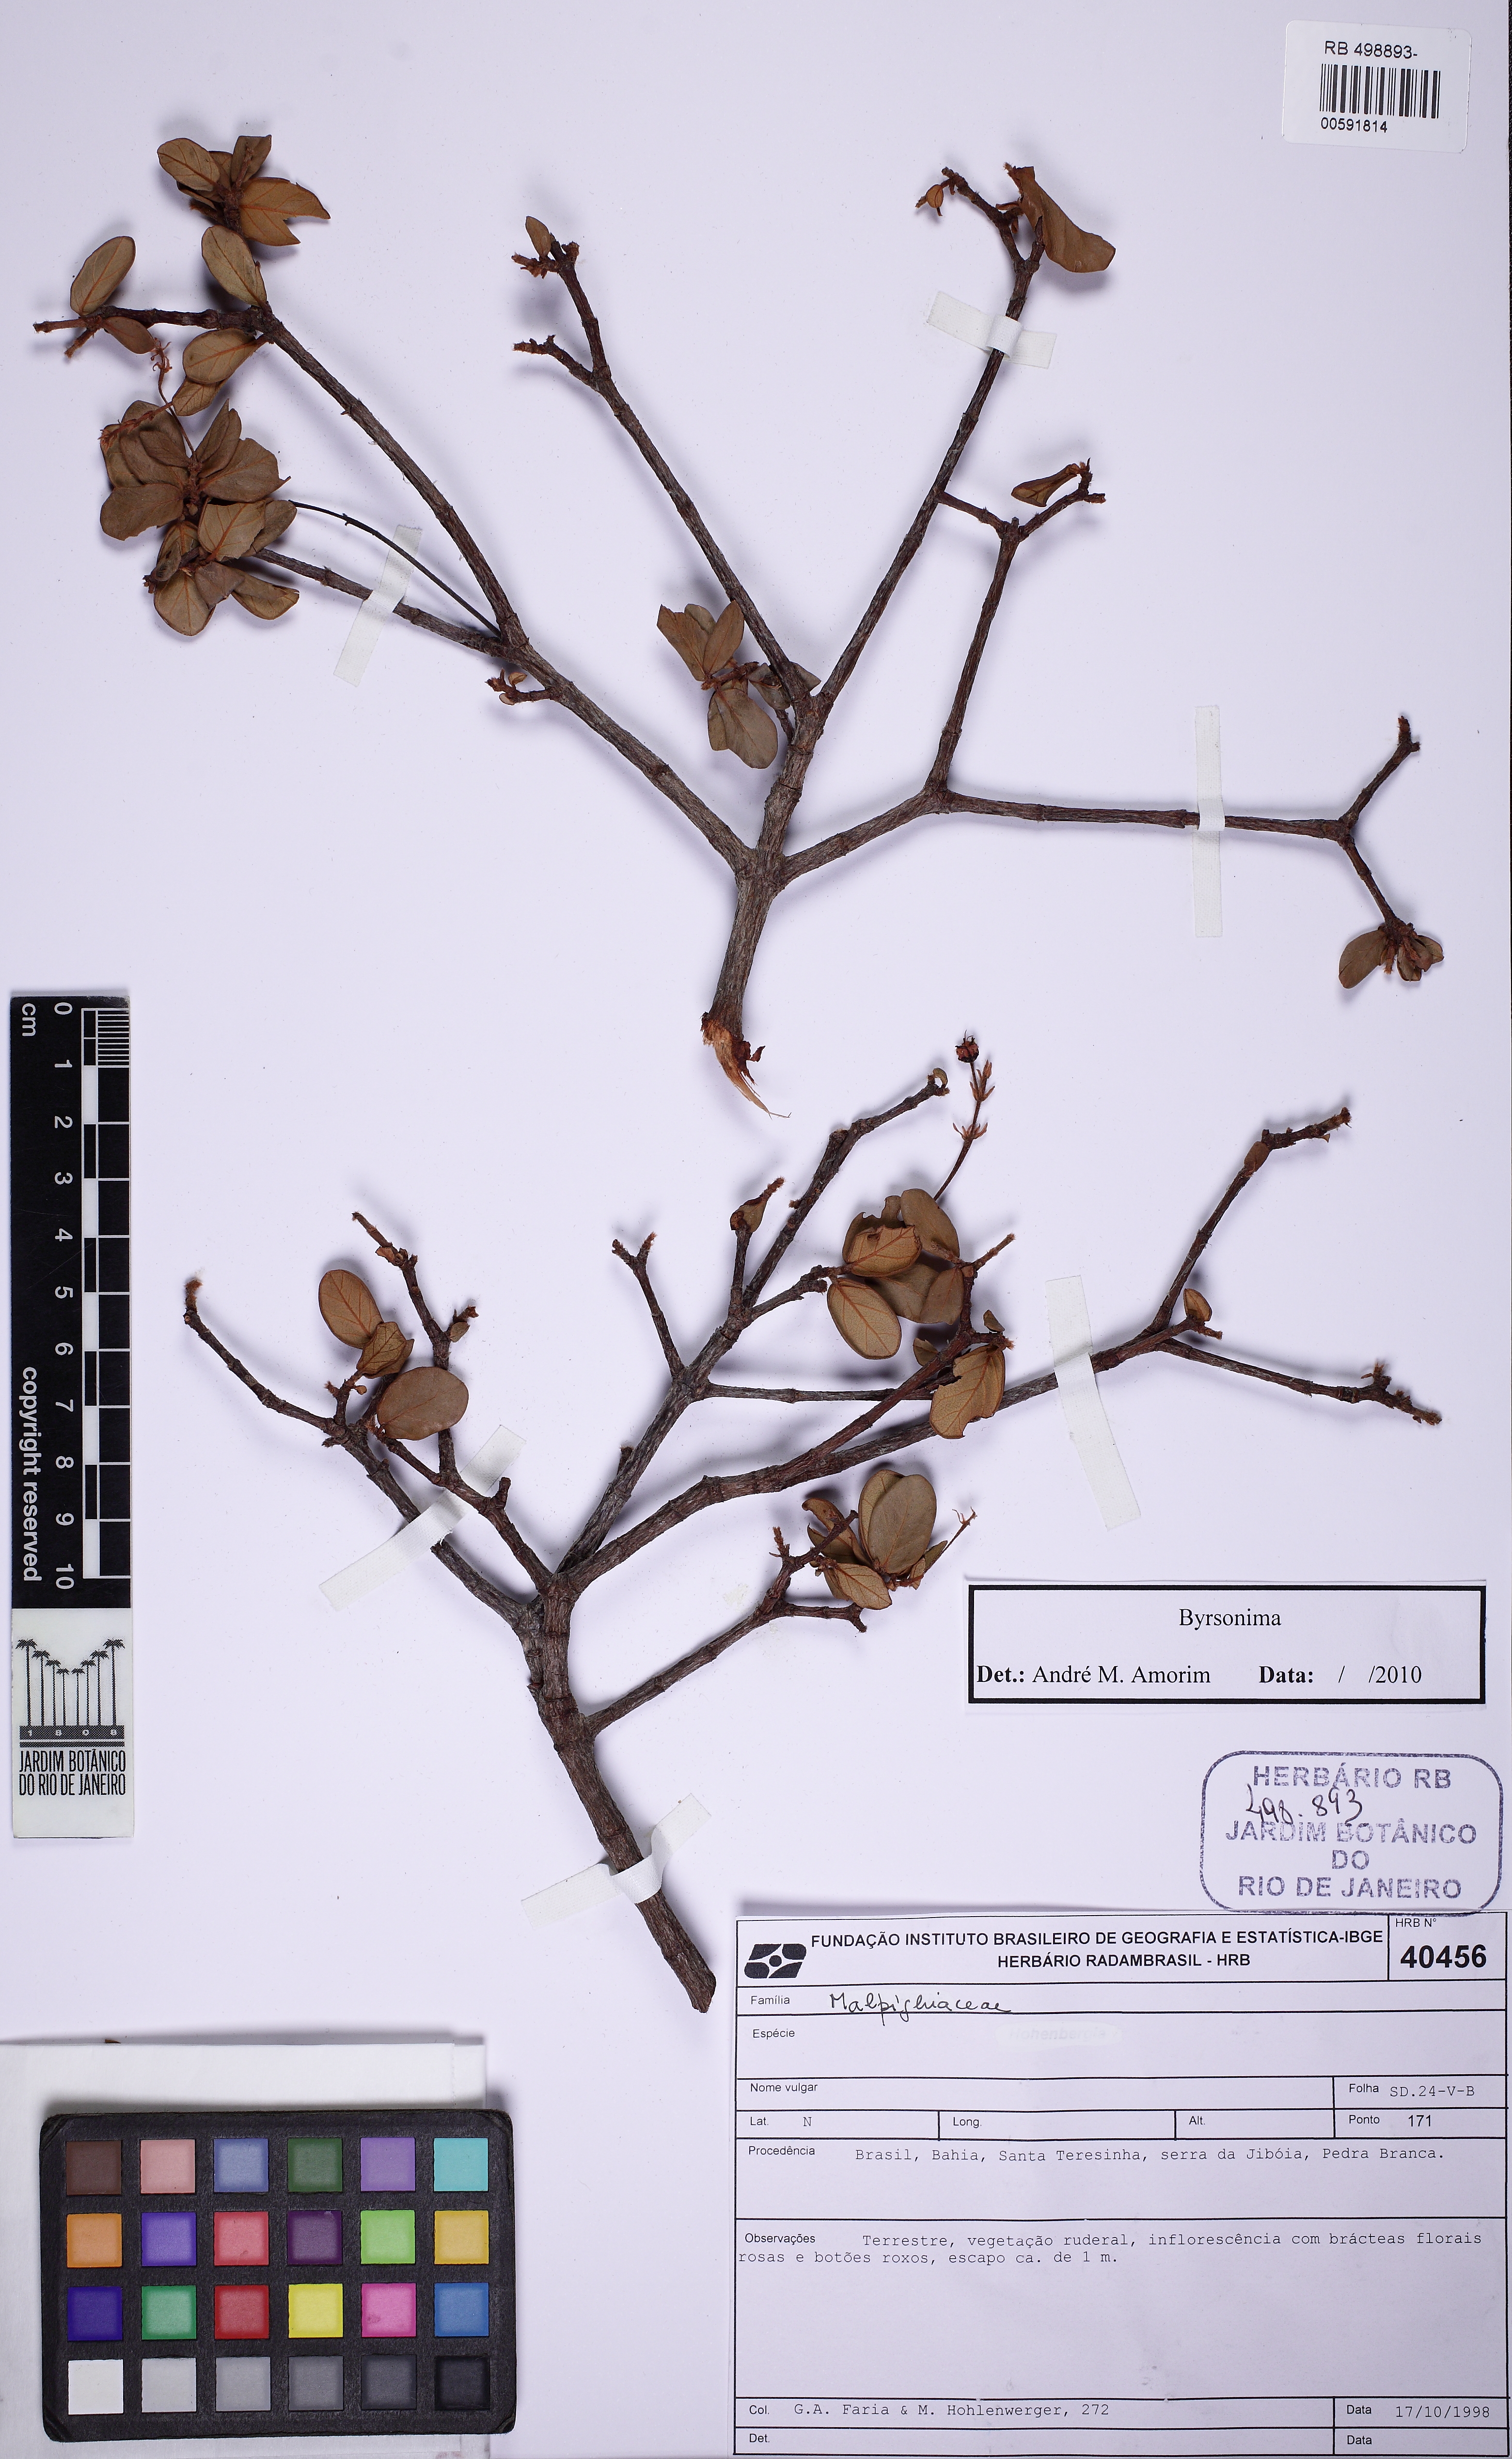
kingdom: Plantae
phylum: Tracheophyta
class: Magnoliopsida
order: Malpighiales
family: Malpighiaceae
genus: Byrsonima
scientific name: Byrsonima
